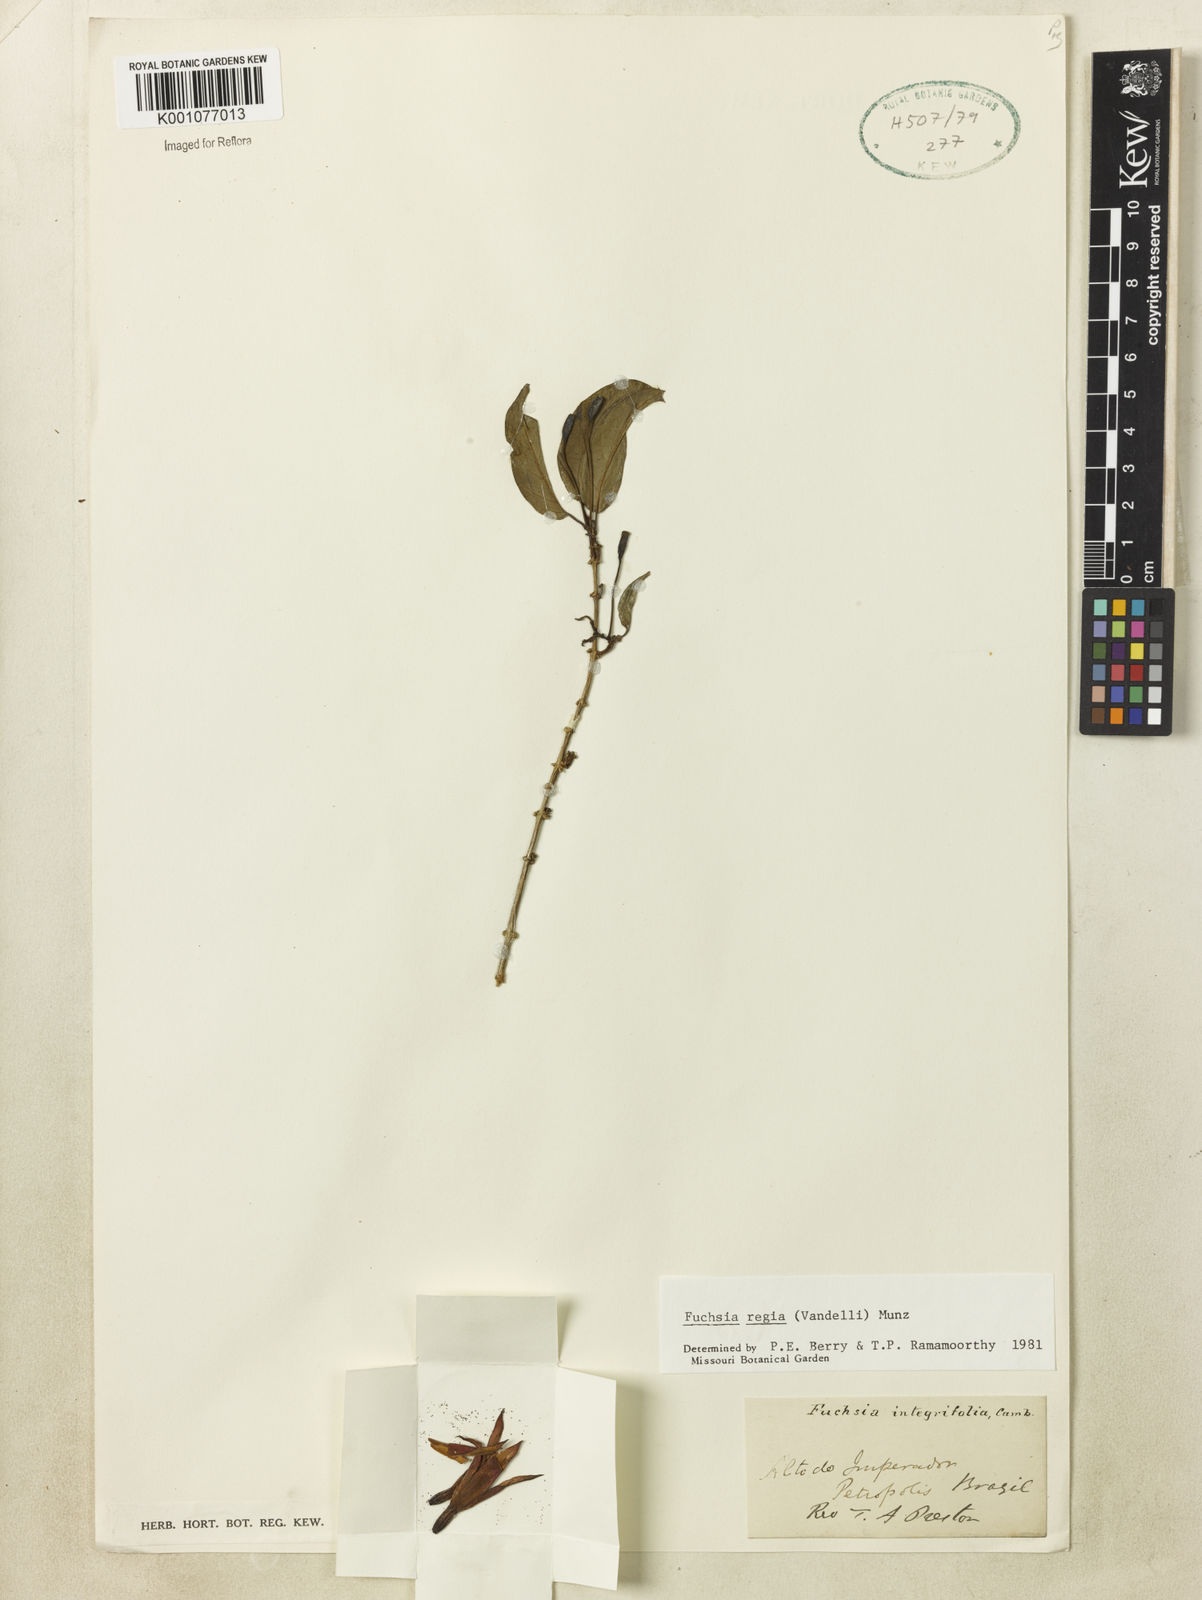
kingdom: Plantae
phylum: Tracheophyta
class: Magnoliopsida
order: Myrtales
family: Onagraceae
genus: Fuchsia
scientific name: Fuchsia regia
